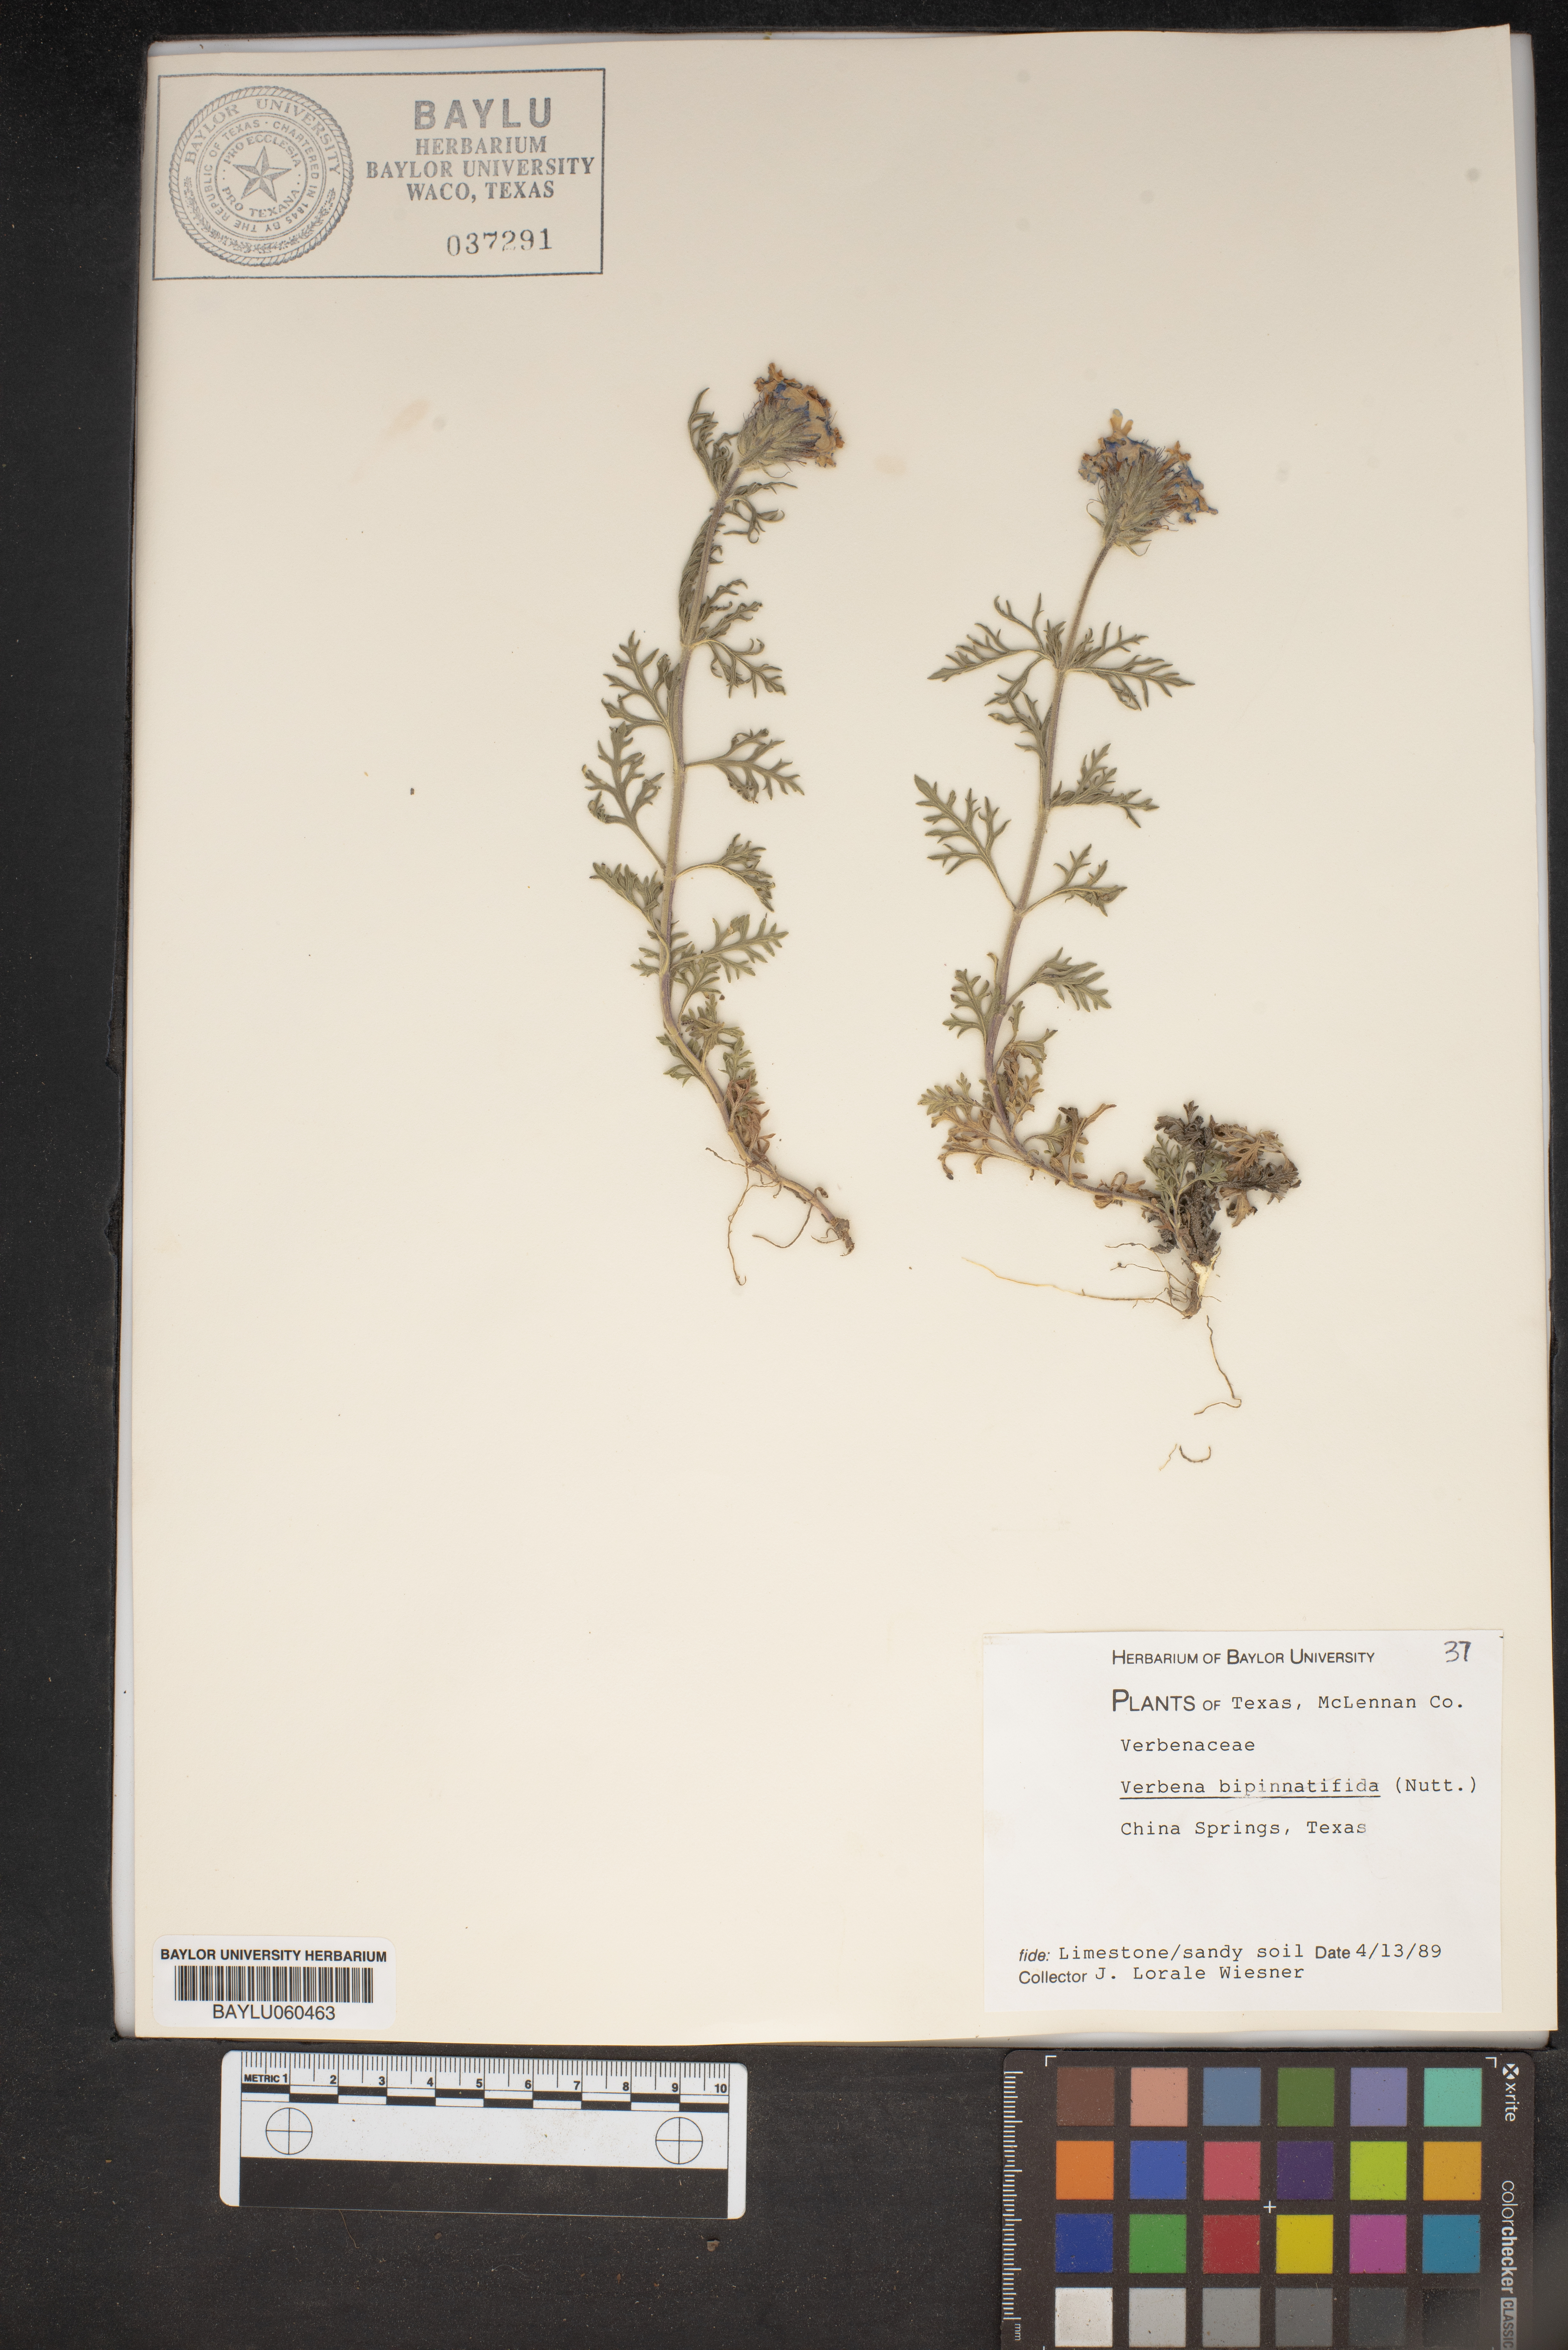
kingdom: Plantae
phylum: Tracheophyta
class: Magnoliopsida
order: Lamiales
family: Verbenaceae
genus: Verbena
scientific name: Verbena bipinnatifida
